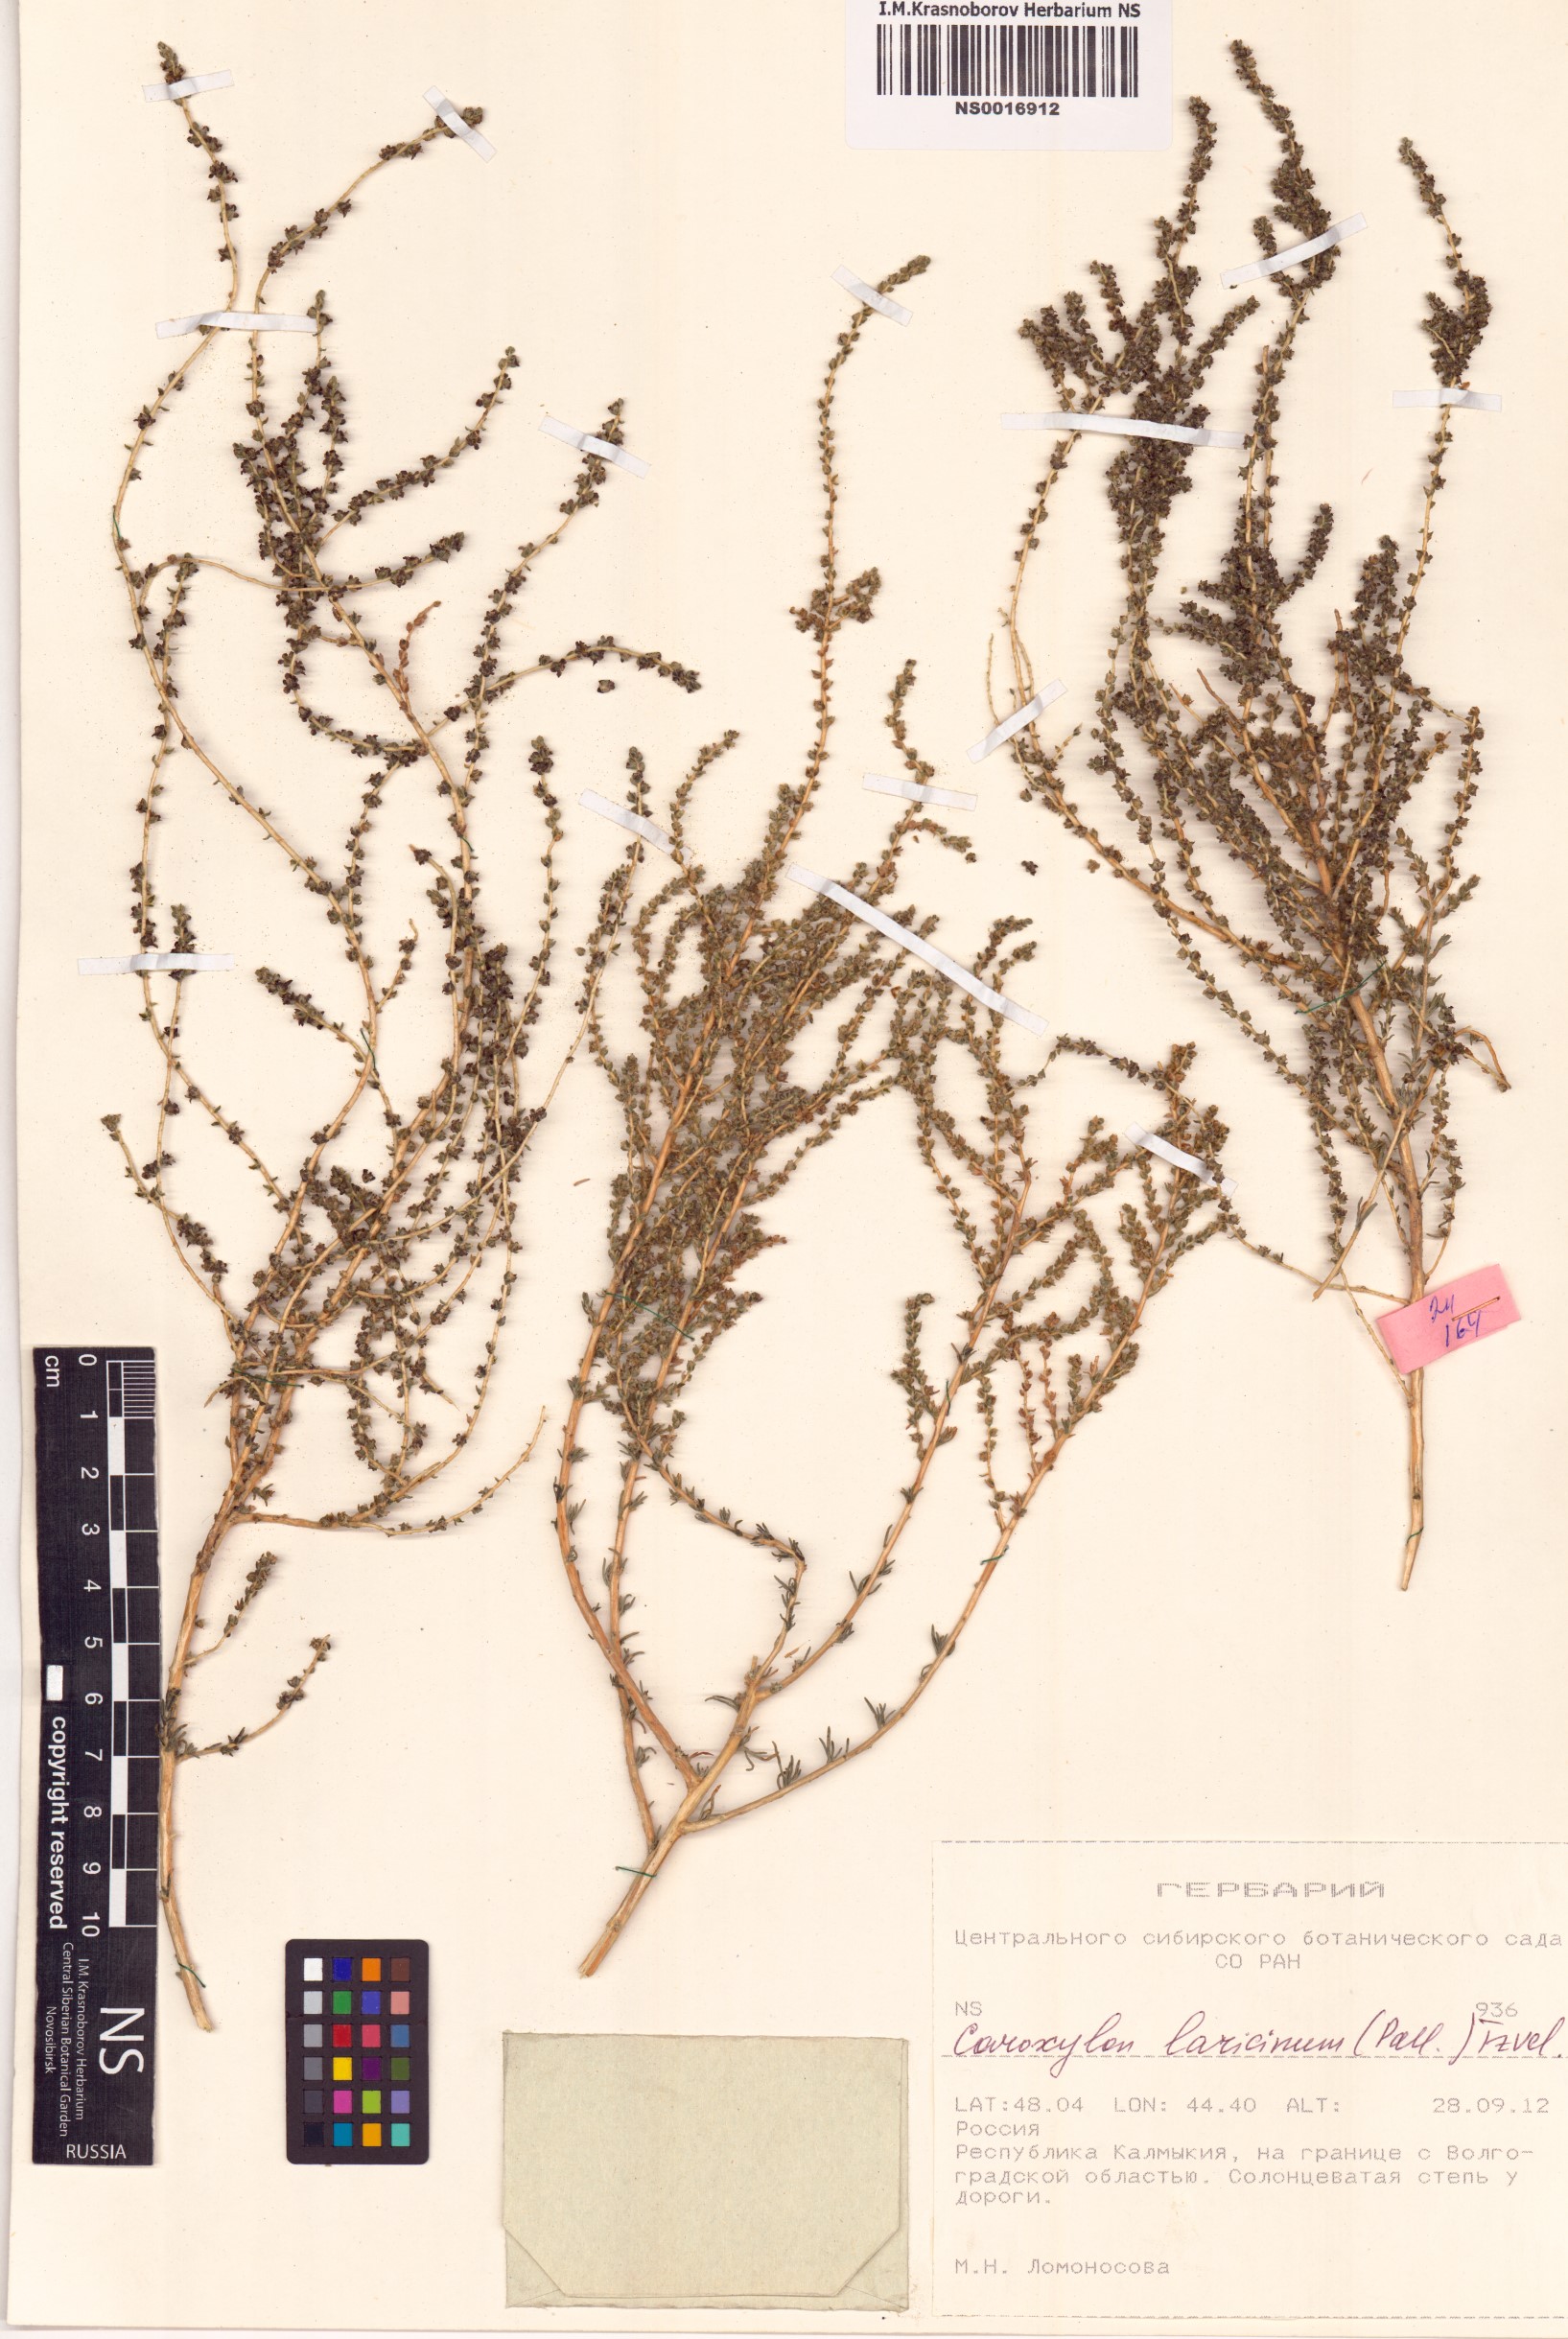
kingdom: Plantae
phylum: Tracheophyta
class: Magnoliopsida
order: Caryophyllales
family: Amaranthaceae
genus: Nitrosalsola
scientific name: Nitrosalsola laricina
